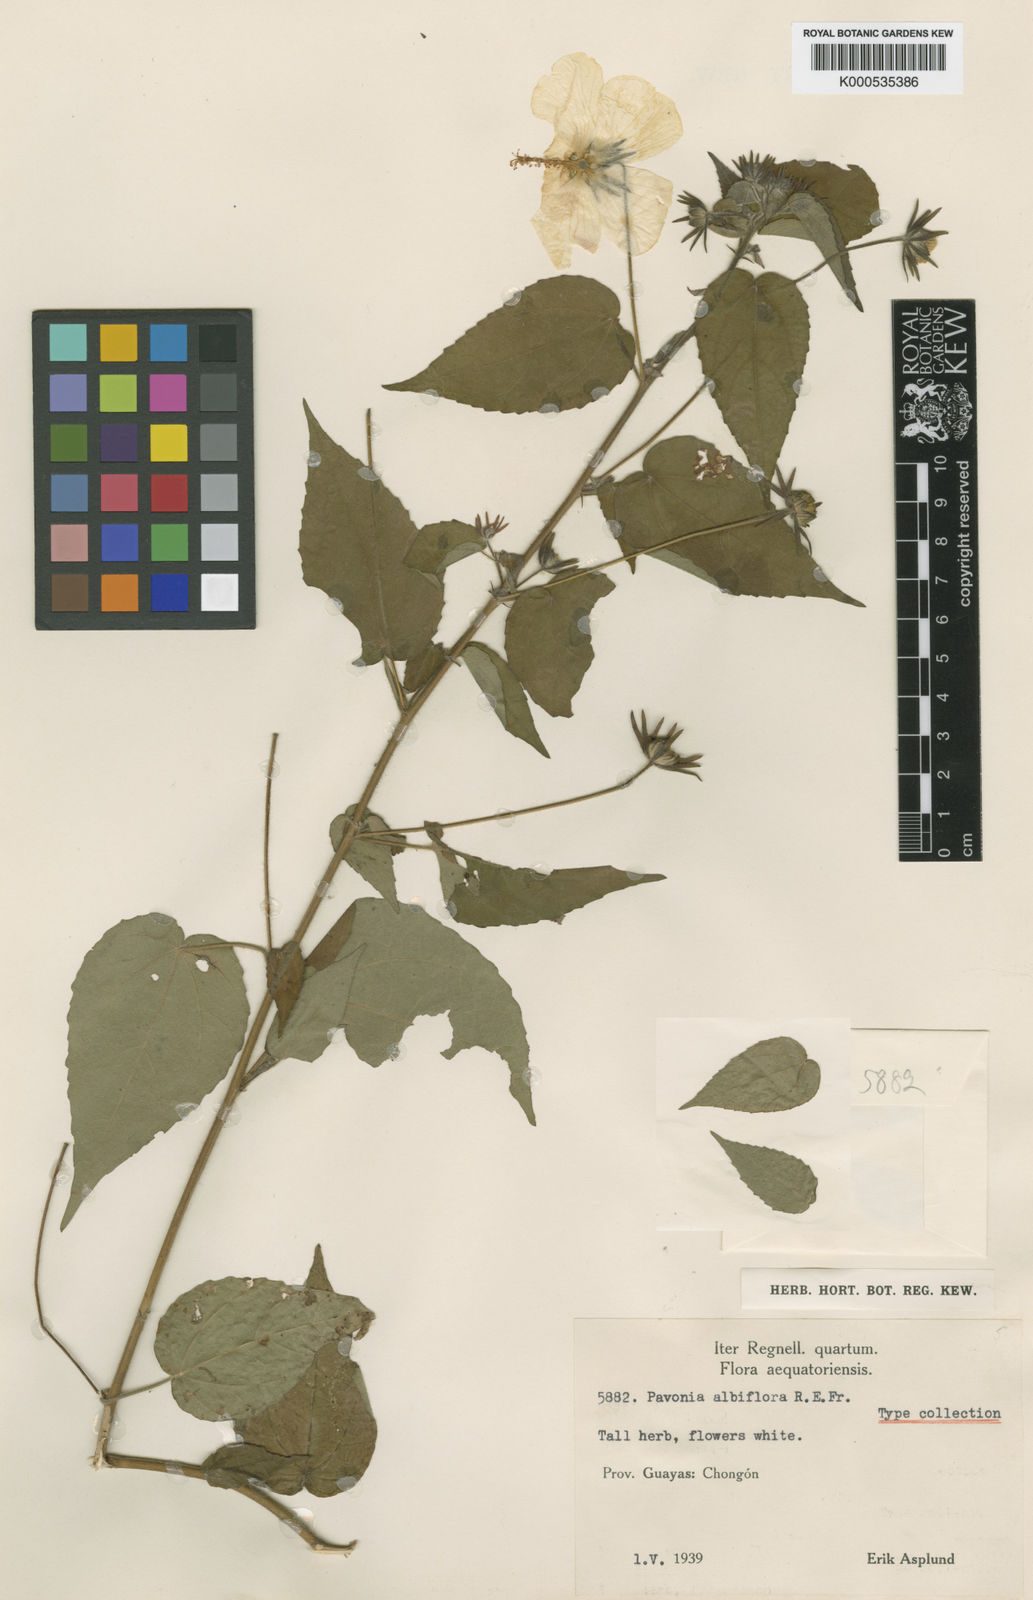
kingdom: Plantae
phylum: Tracheophyta
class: Magnoliopsida
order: Malvales
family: Malvaceae
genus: Pavonia
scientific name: Pavonia mutisii
